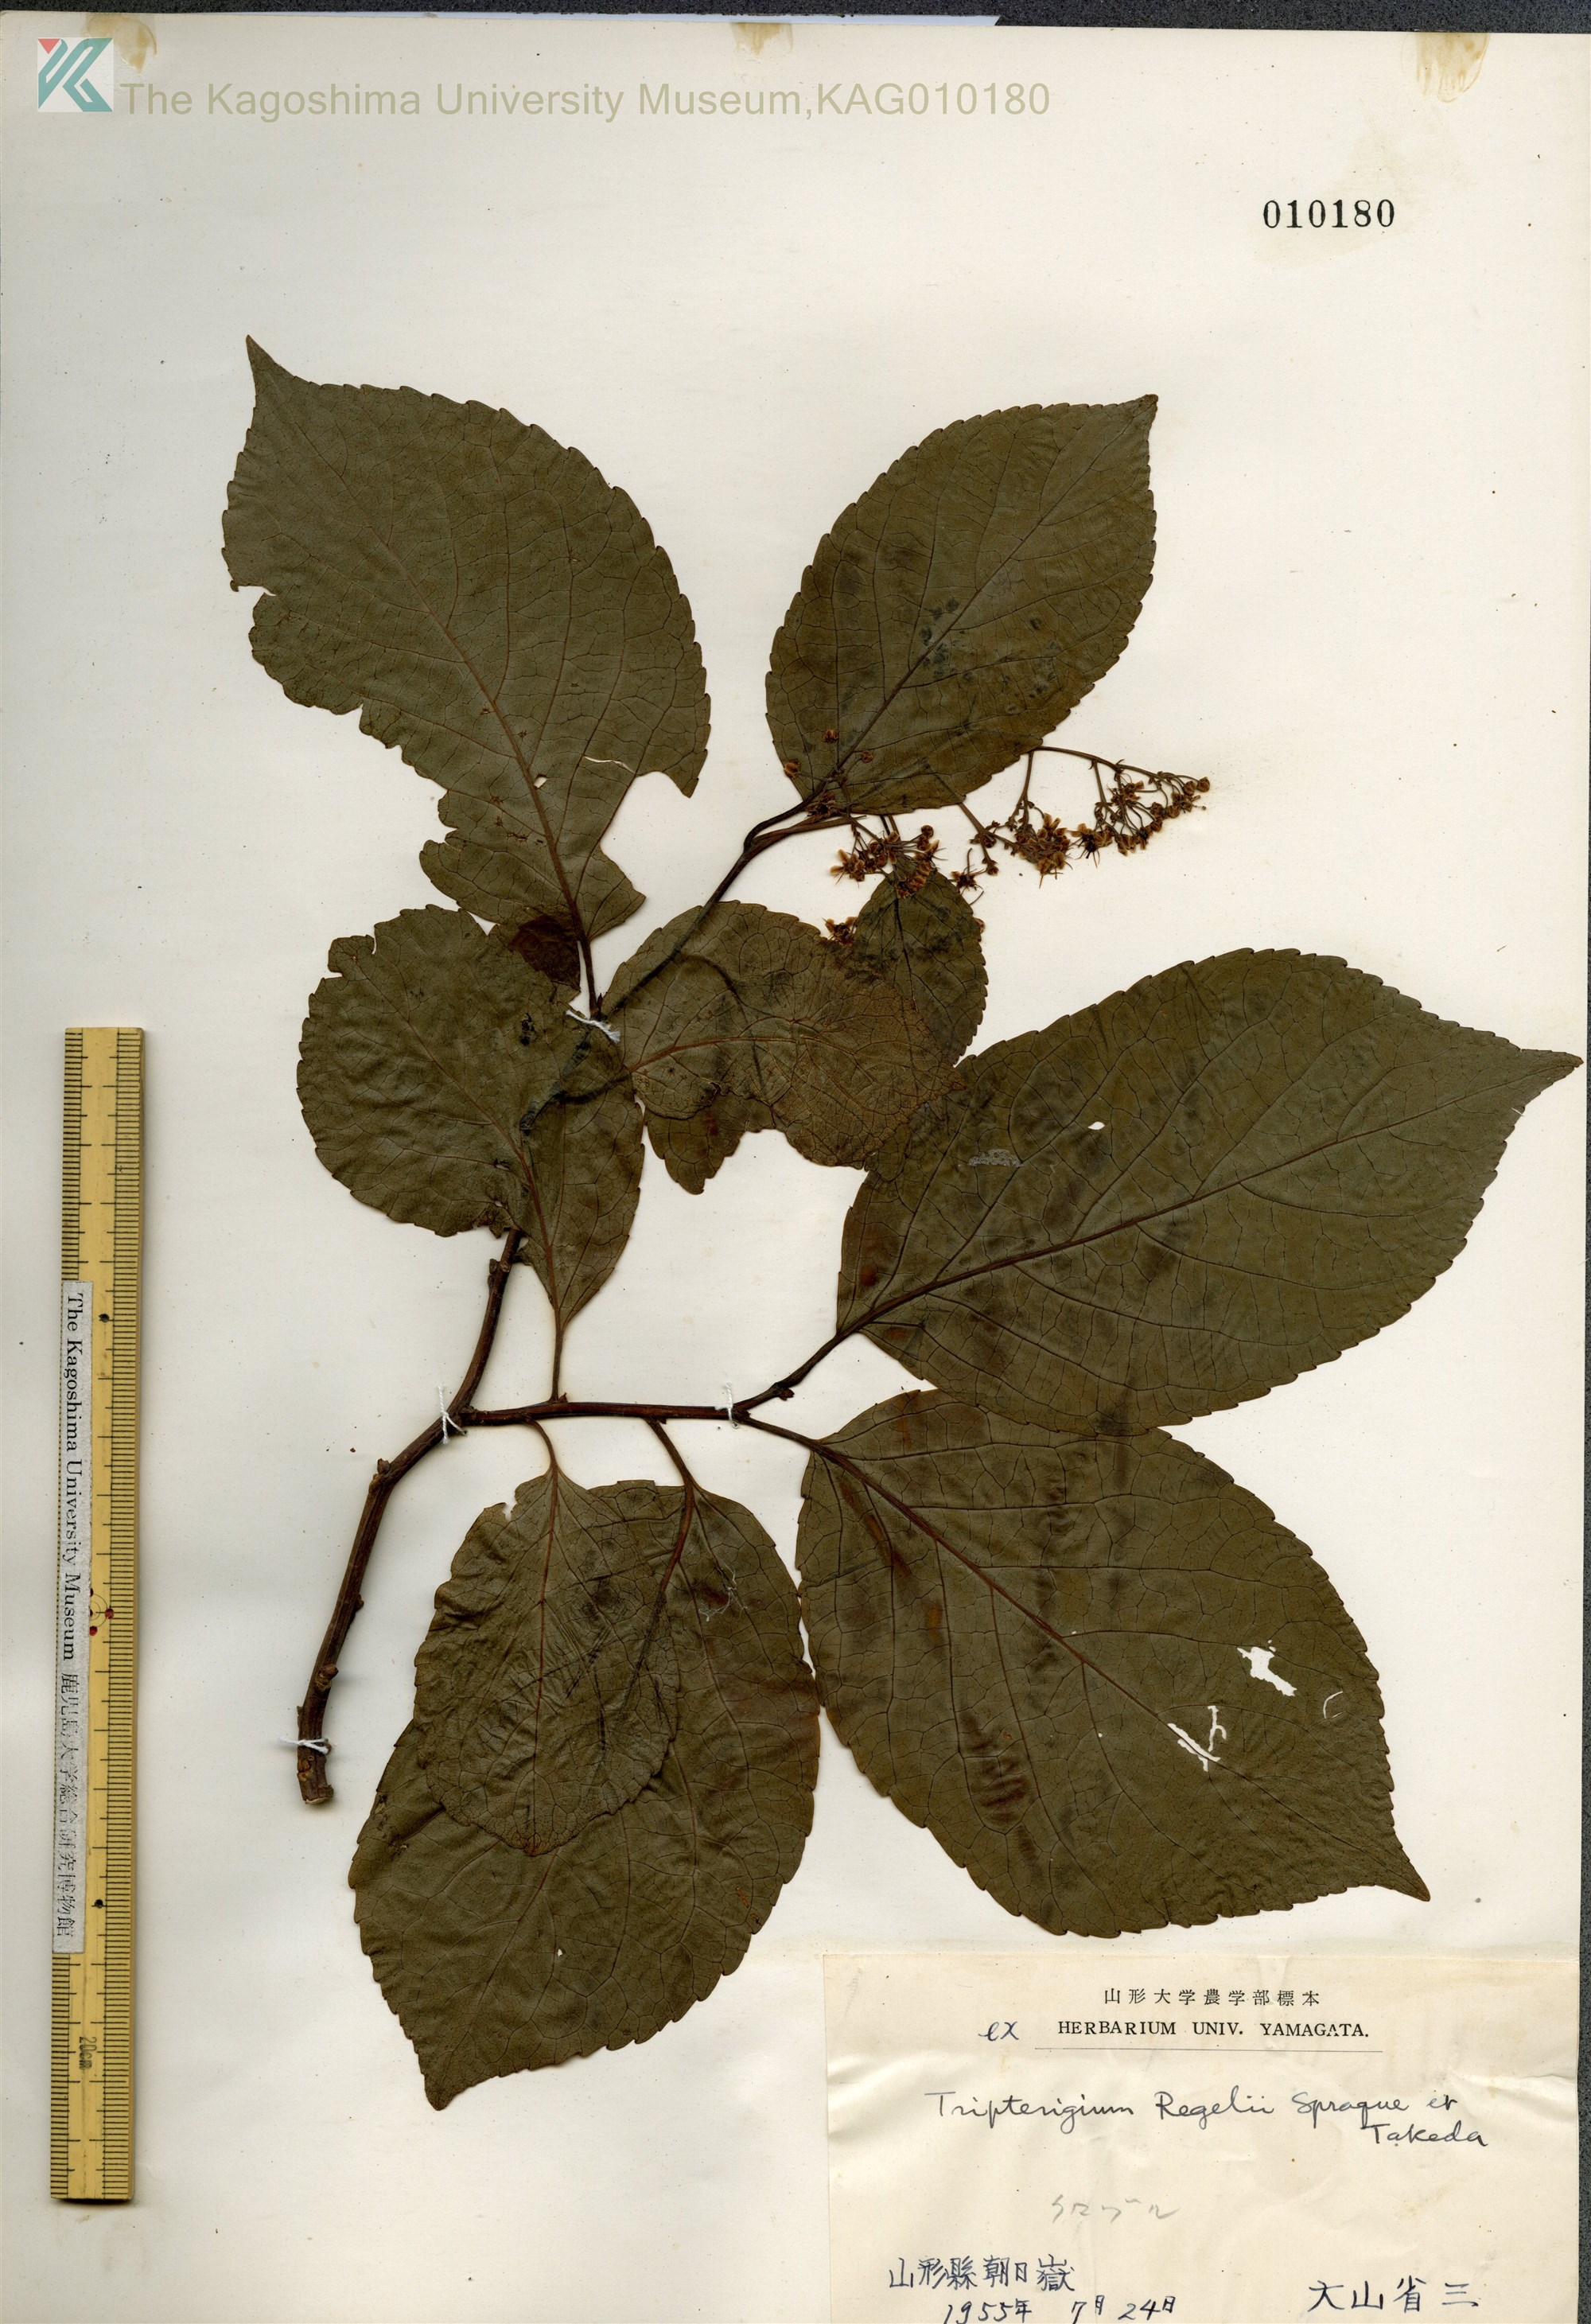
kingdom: Plantae
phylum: Tracheophyta
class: Magnoliopsida
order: Celastrales
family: Celastraceae
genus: Tripterygium
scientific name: Tripterygium wilfordii
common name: クロヅル
